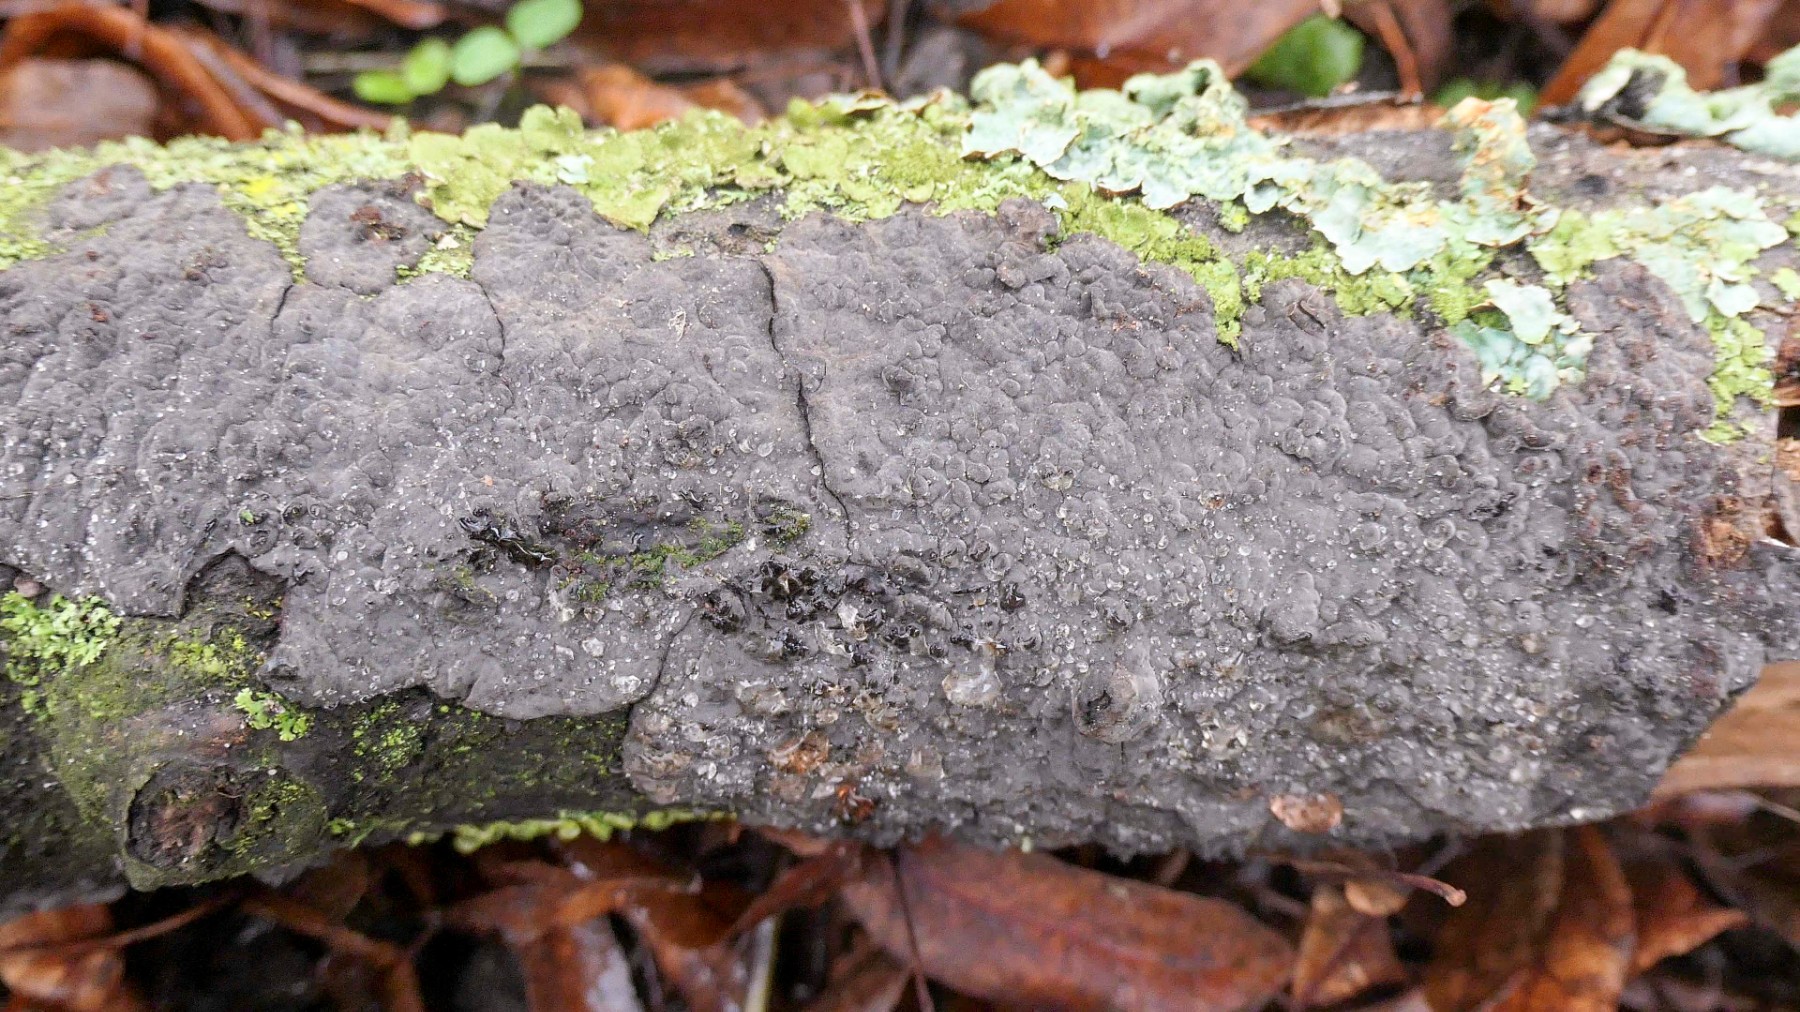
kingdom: Fungi
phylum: Basidiomycota
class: Agaricomycetes
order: Russulales
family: Peniophoraceae
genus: Peniophora
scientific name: Peniophora rufomarginata
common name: linde-voksskind
